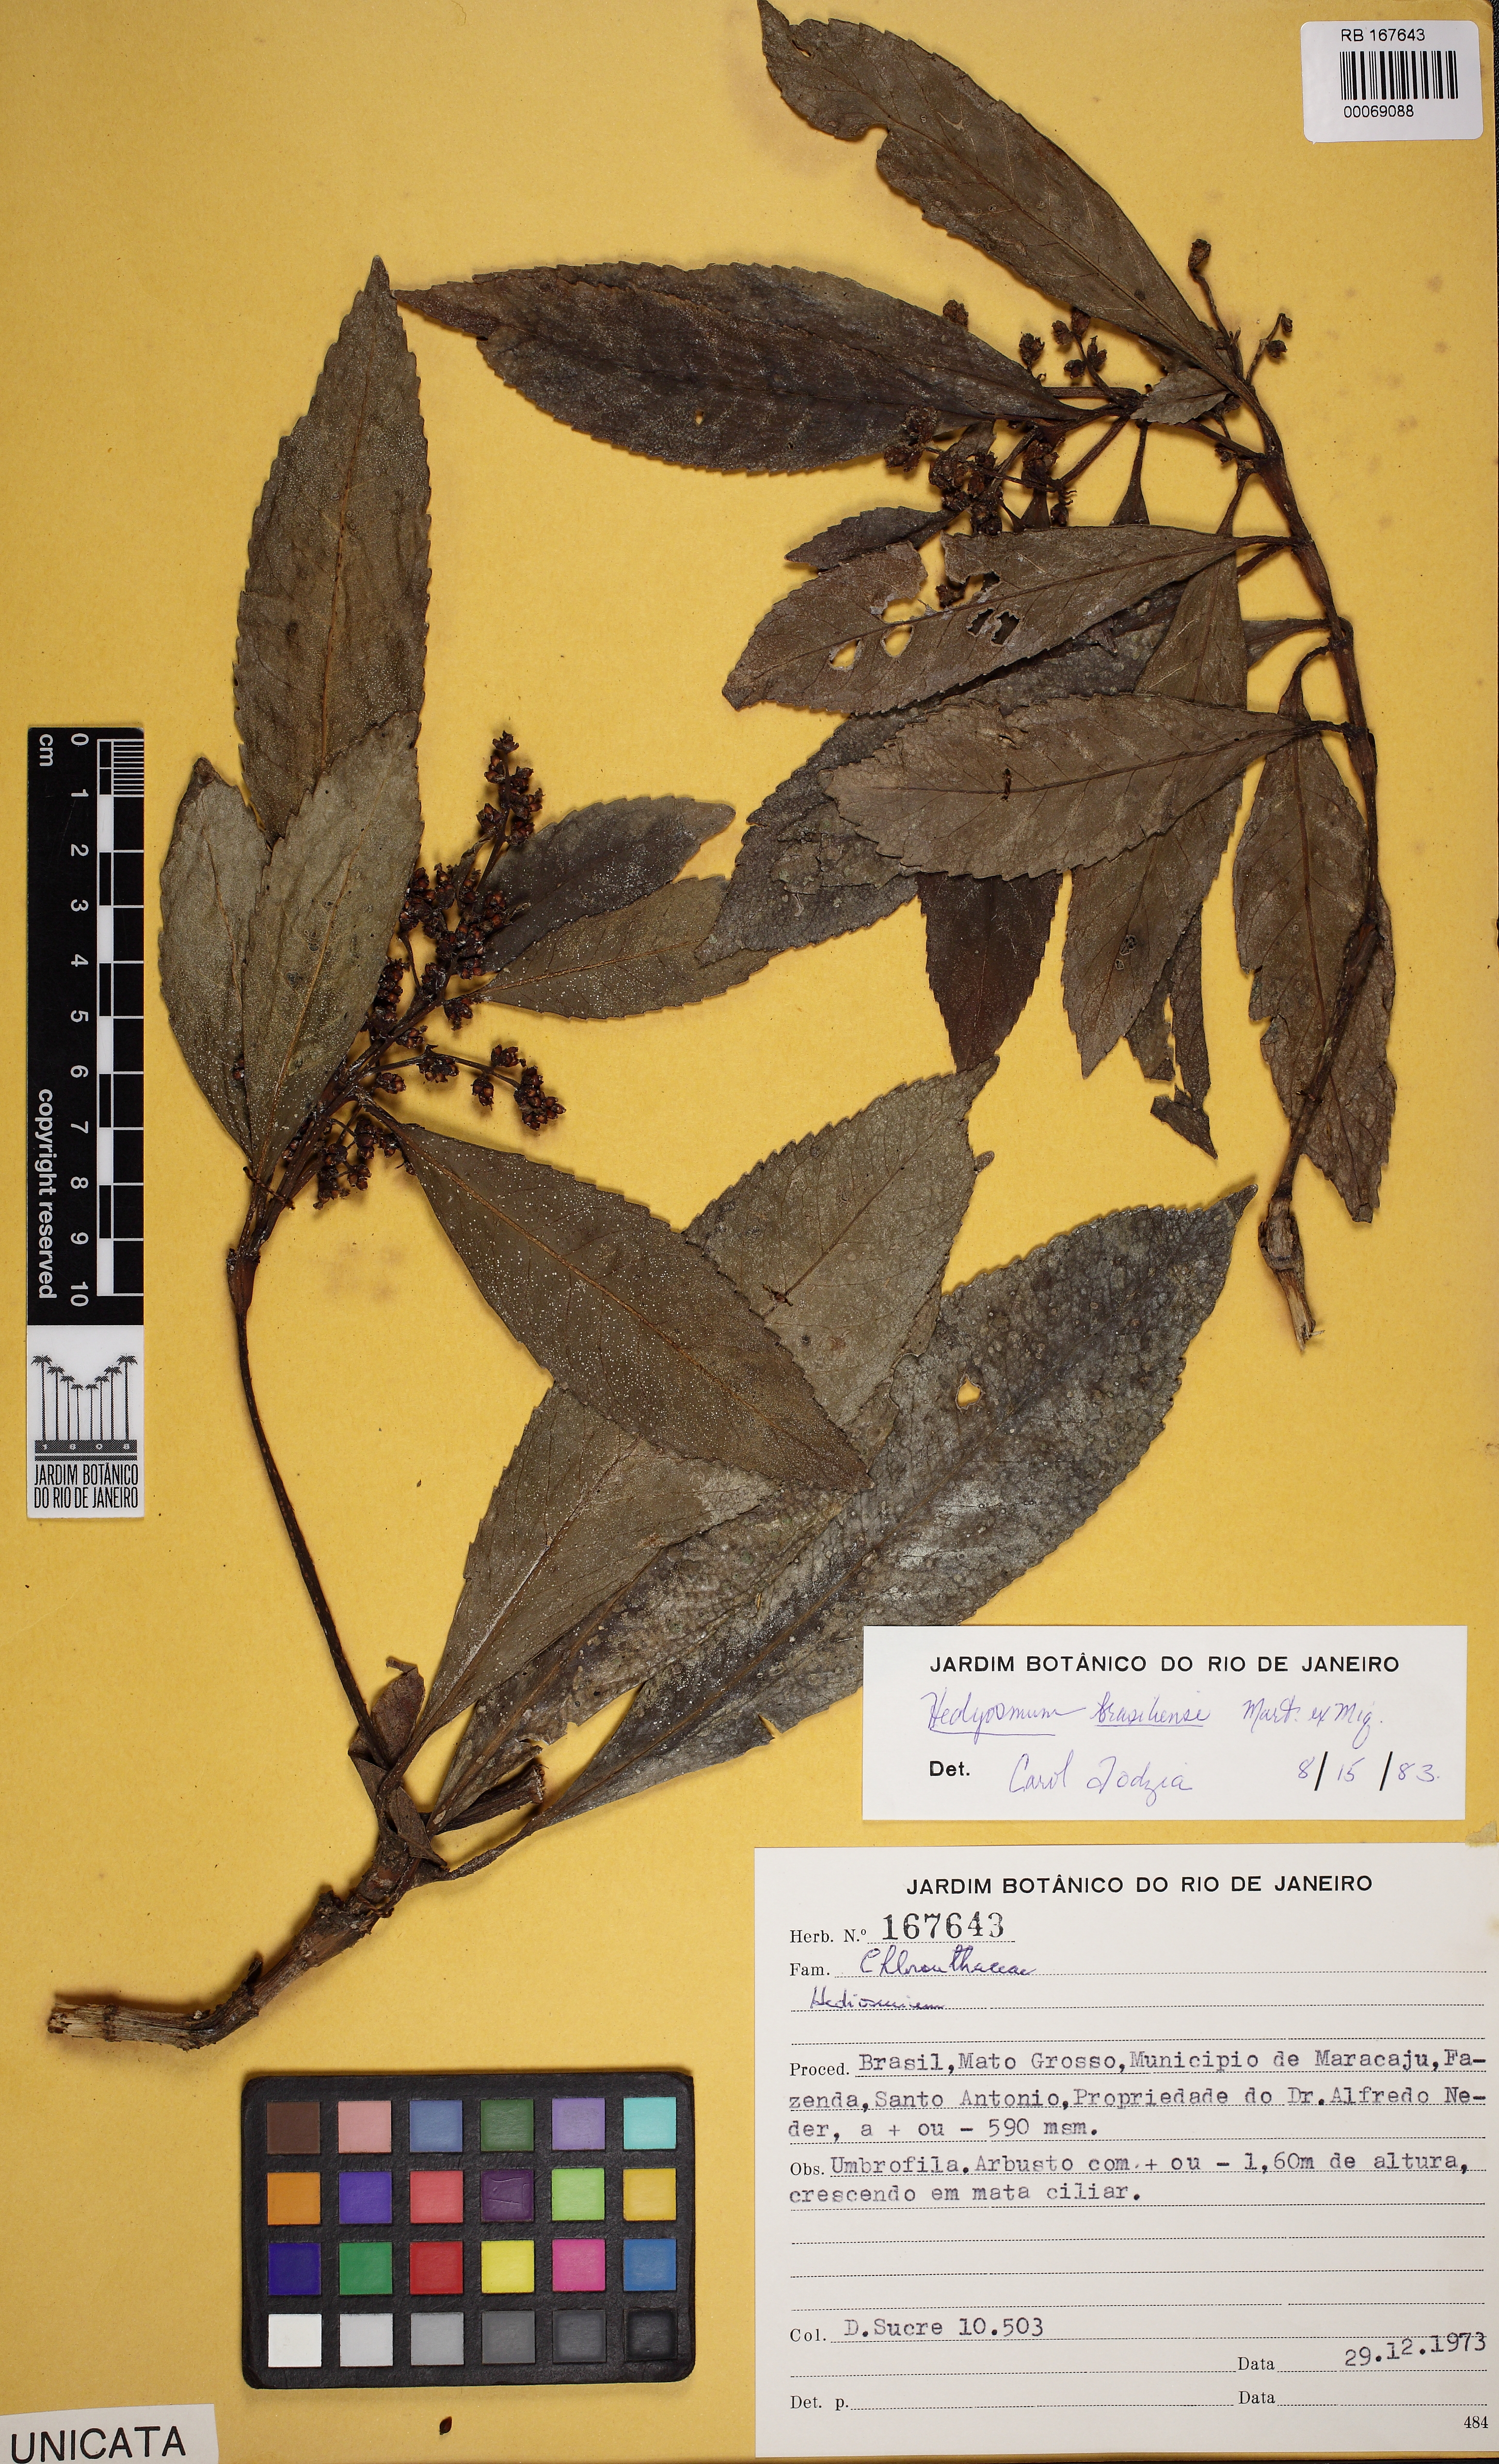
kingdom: Plantae
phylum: Tracheophyta
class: Magnoliopsida
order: Chloranthales
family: Chloranthaceae
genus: Hedyosmum
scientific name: Hedyosmum brasiliense
